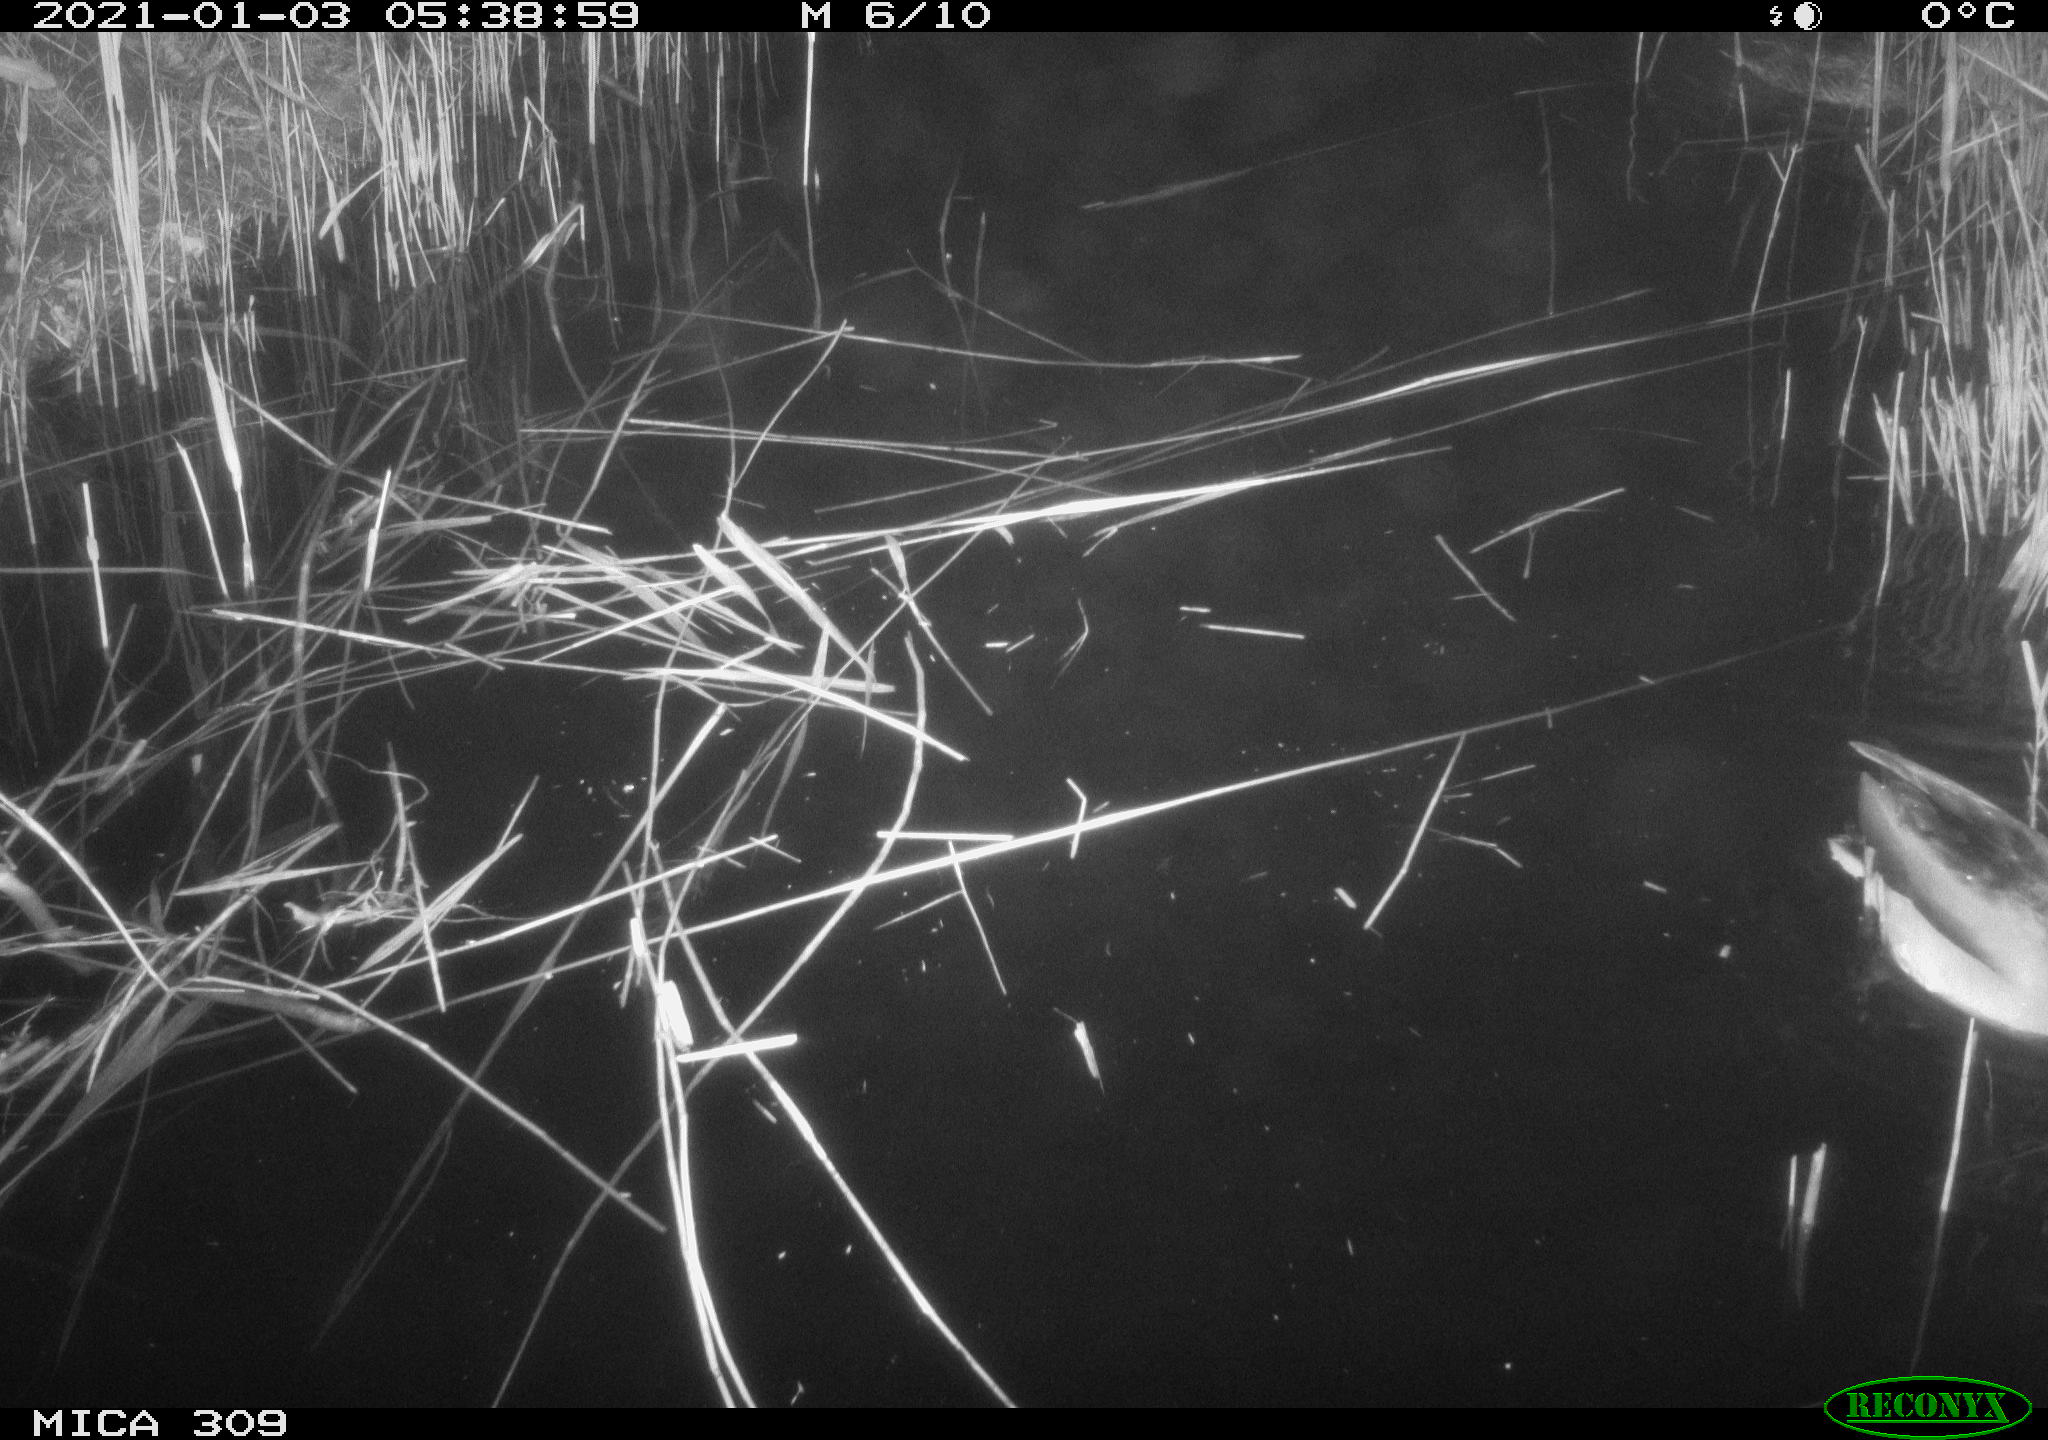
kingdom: Animalia
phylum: Chordata
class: Aves
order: Anseriformes
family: Anatidae
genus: Anas
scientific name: Anas platyrhynchos
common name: Mallard
